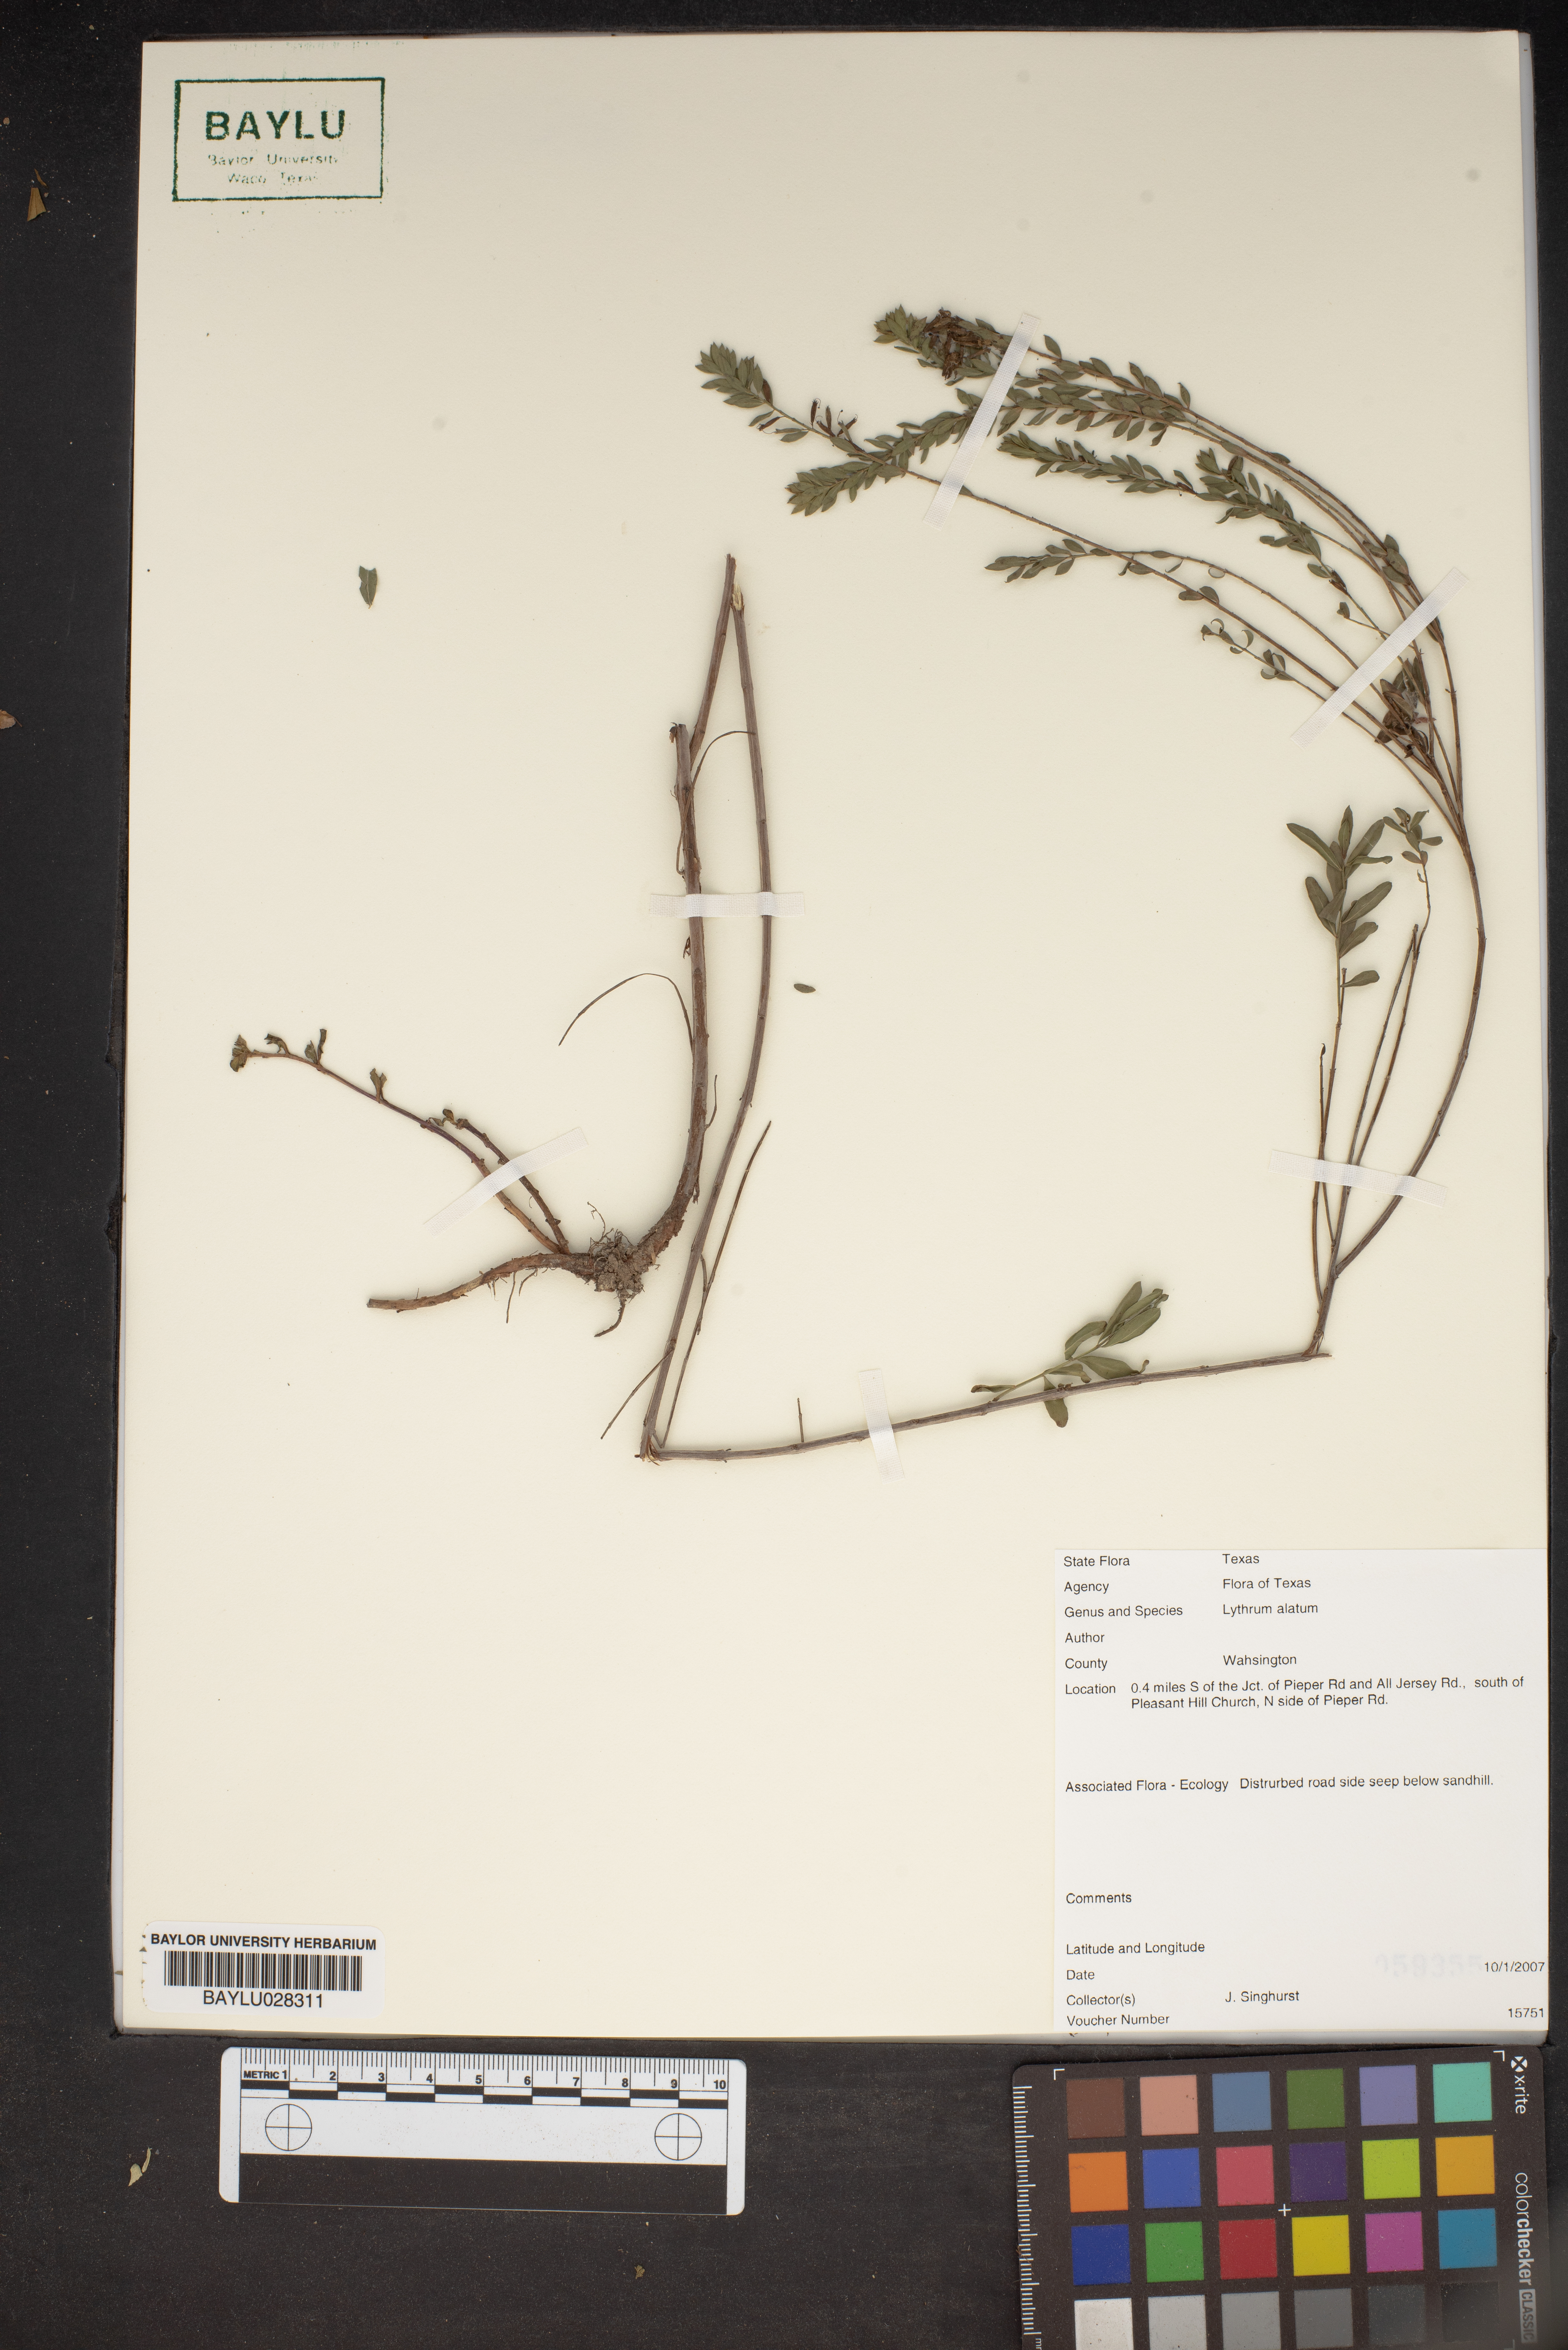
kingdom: Plantae
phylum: Tracheophyta
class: Magnoliopsida
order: Myrtales
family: Lythraceae
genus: Lythrum
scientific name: Lythrum alatum
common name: Winged loosestrife
